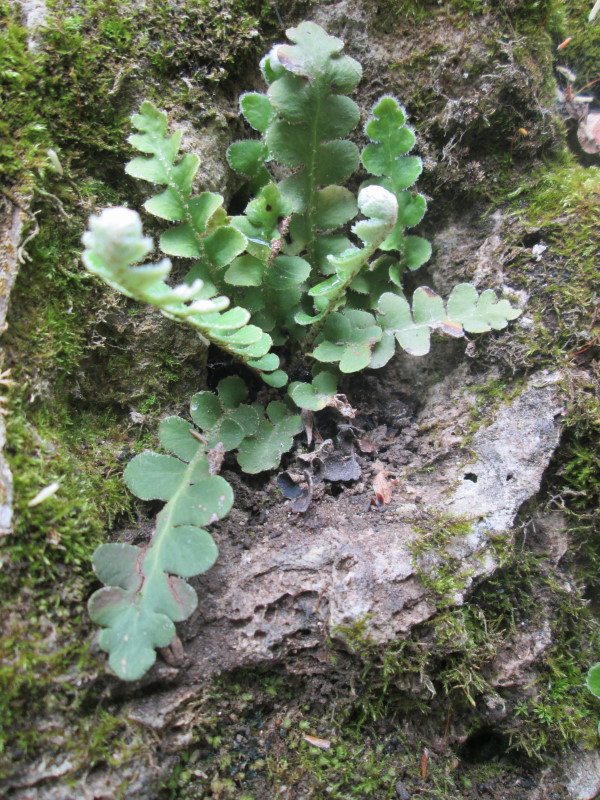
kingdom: Plantae
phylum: Tracheophyta
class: Polypodiopsida
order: Polypodiales
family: Aspleniaceae
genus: Asplenium
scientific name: Asplenium ceterach
